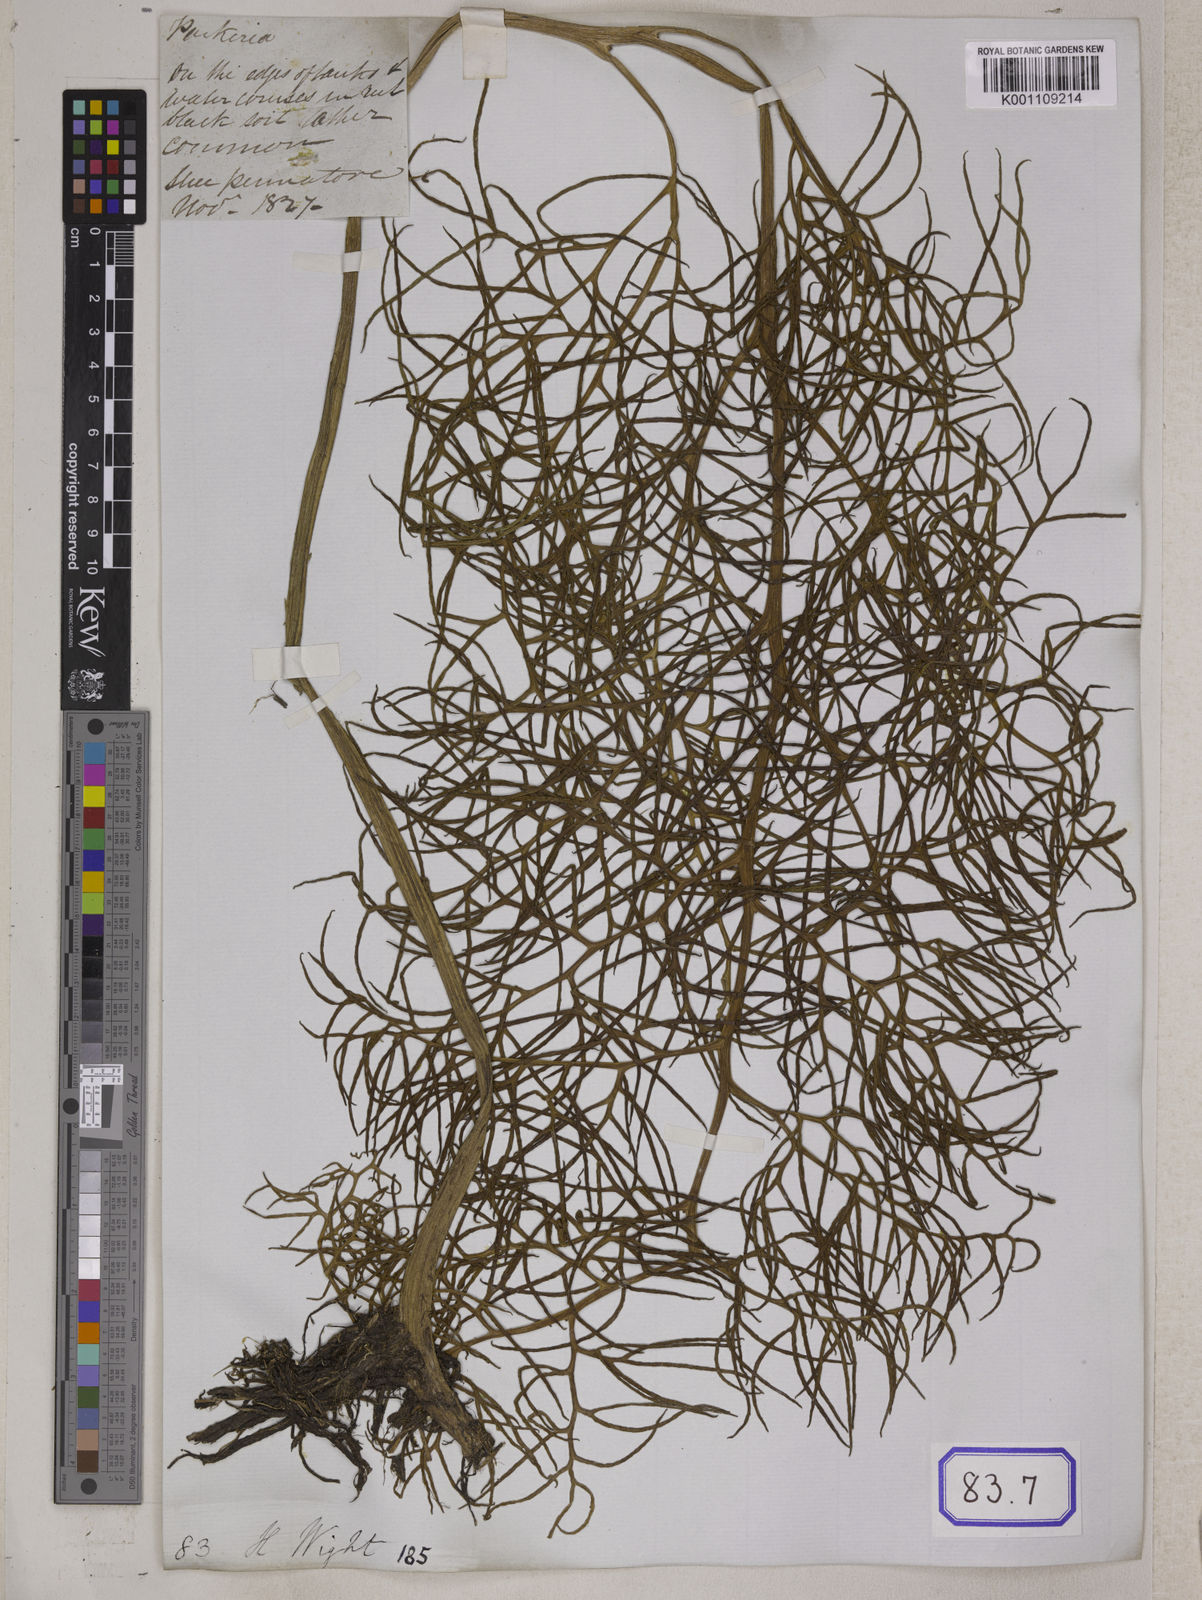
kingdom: Plantae
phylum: Tracheophyta
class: Polypodiopsida
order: Polypodiales
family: Pteridaceae
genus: Ceratopteris
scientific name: Ceratopteris thalictroides
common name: Water fern
